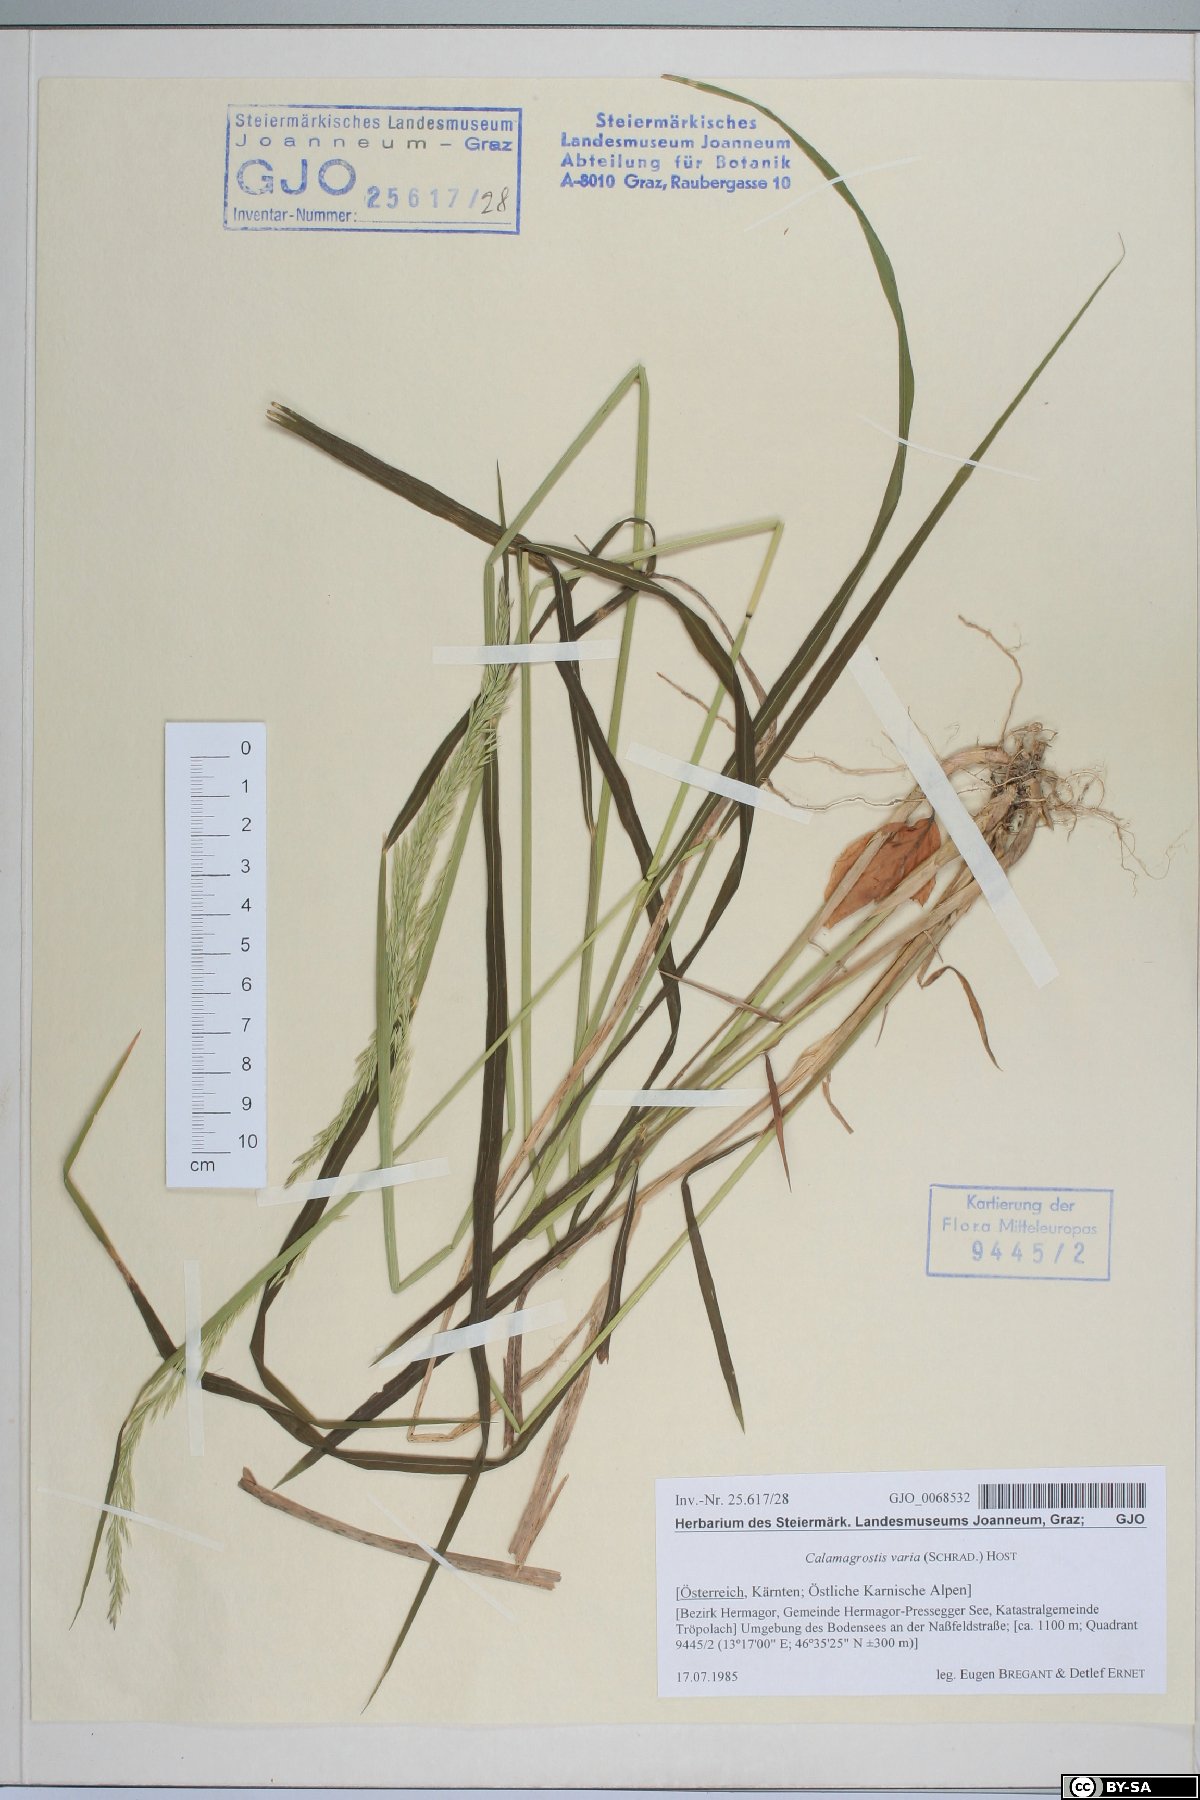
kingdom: Plantae
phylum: Tracheophyta
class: Liliopsida
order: Poales
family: Poaceae
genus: Calamagrostis
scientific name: Calamagrostis varia
